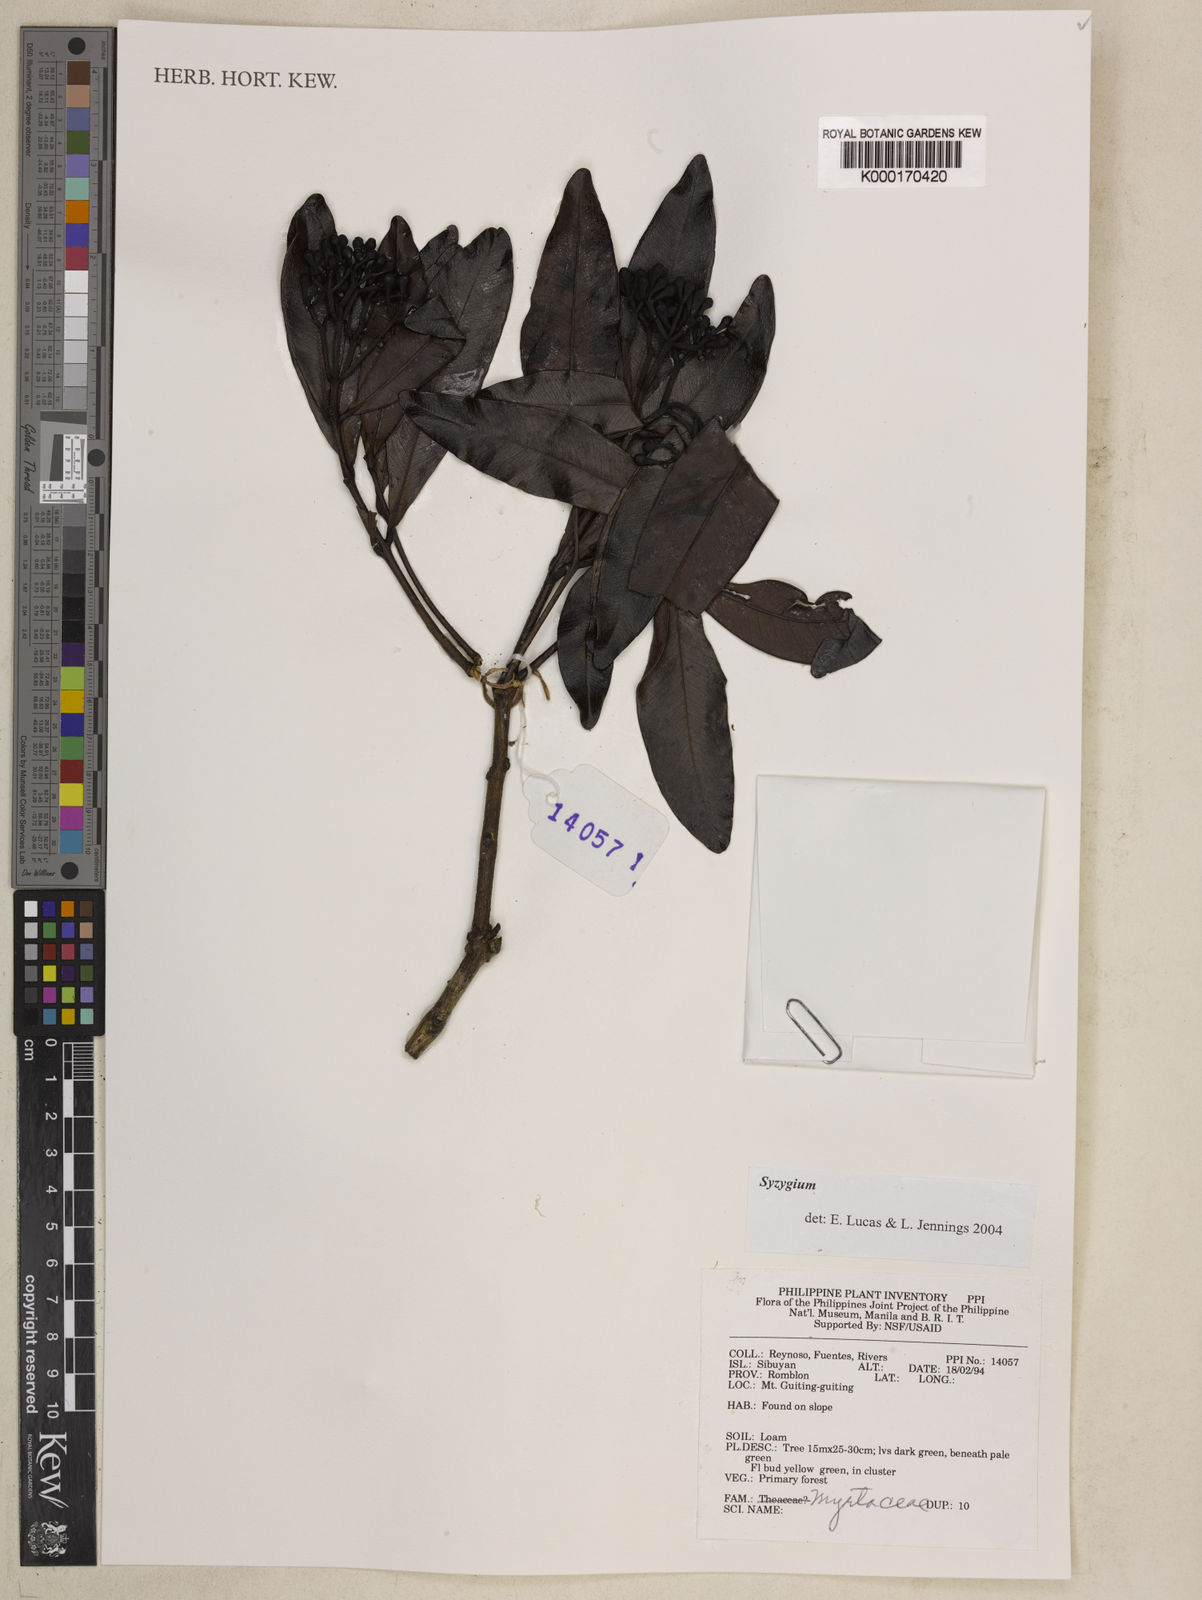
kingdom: Plantae
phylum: Tracheophyta
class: Magnoliopsida
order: Myrtales
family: Myrtaceae
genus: Syzygium
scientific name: Syzygium
